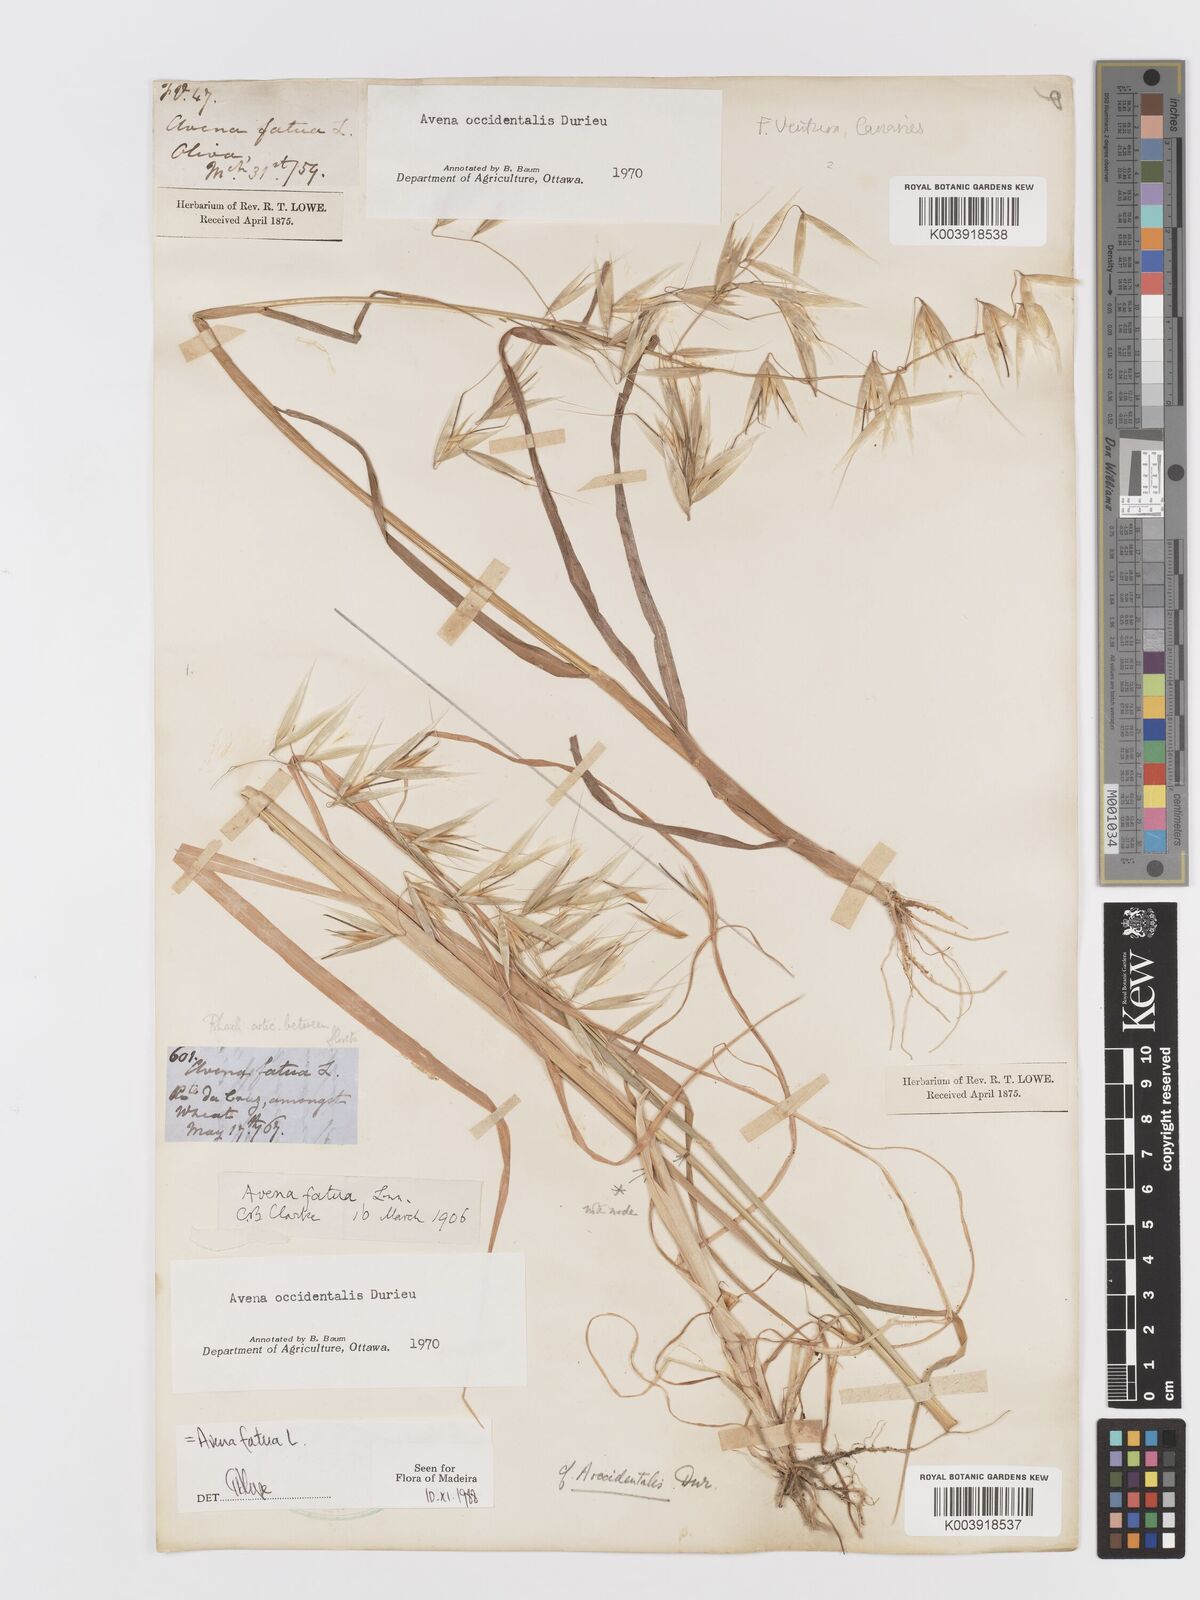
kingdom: Plantae
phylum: Tracheophyta
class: Liliopsida
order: Poales
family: Poaceae
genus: Avena
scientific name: Avena fatua
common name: Wild oat
